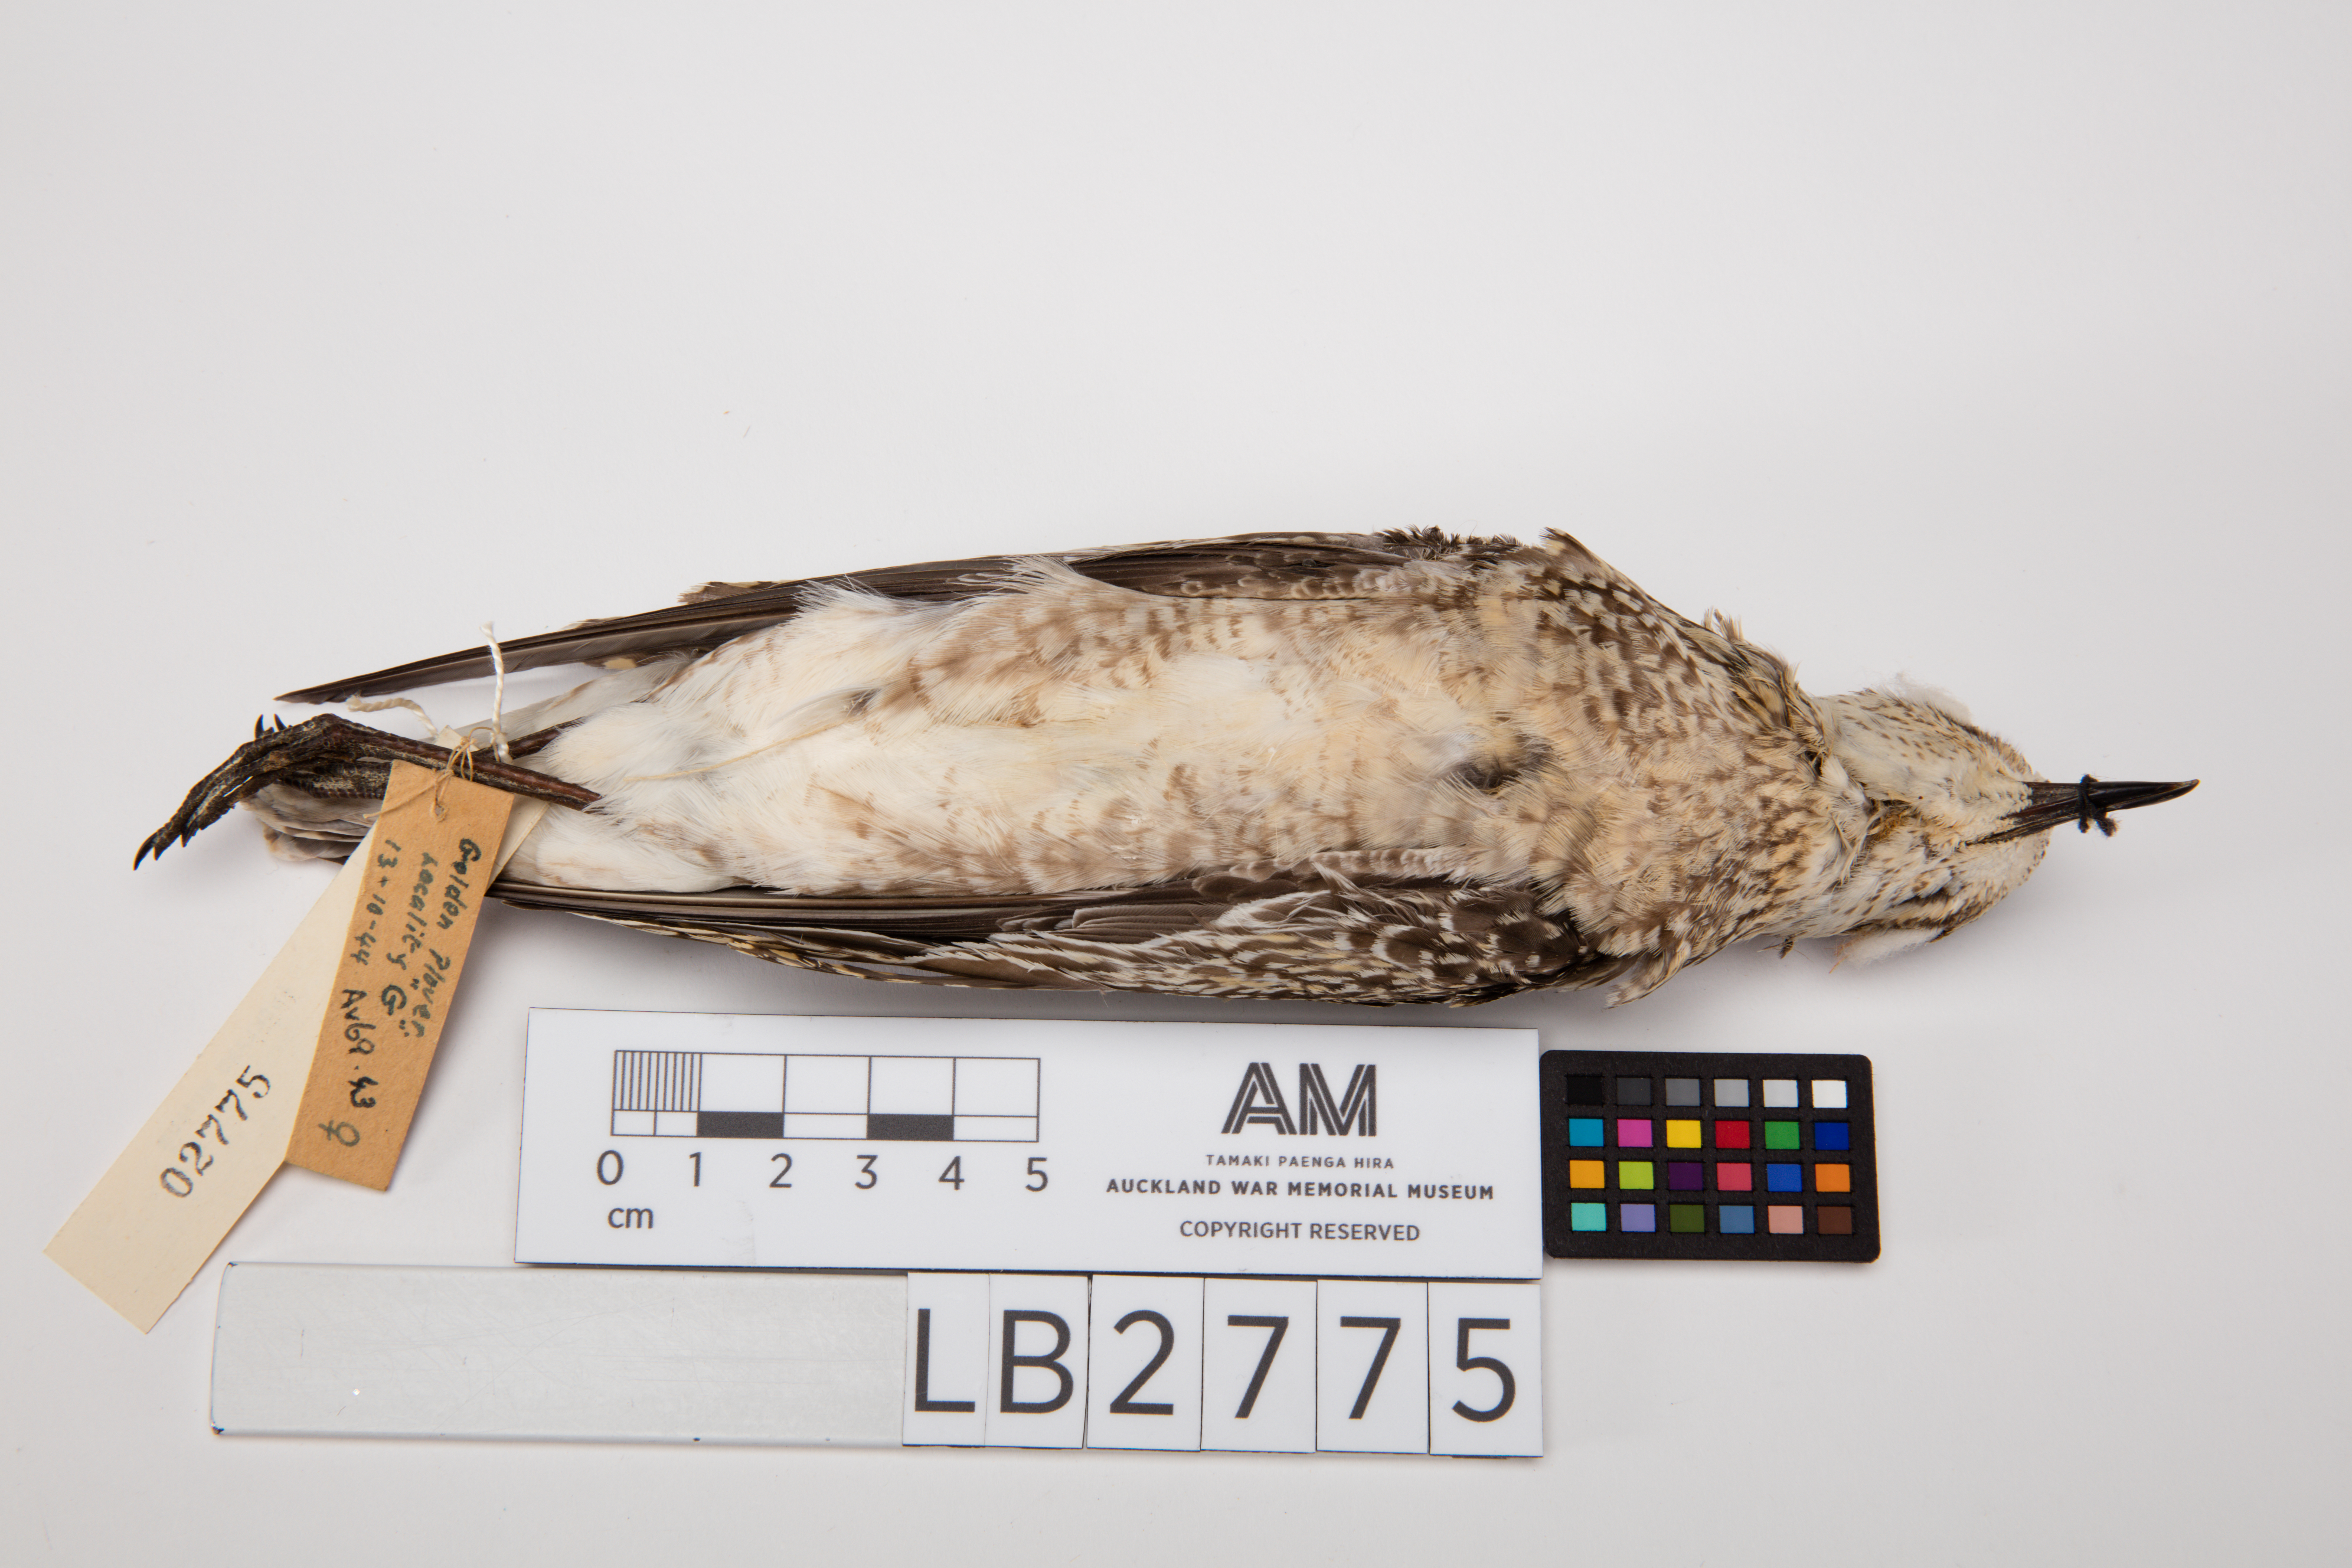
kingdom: Animalia
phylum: Chordata
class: Aves
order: Charadriiformes
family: Charadriidae
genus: Pluvialis
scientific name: Pluvialis fulva
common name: Pacific golden plover
